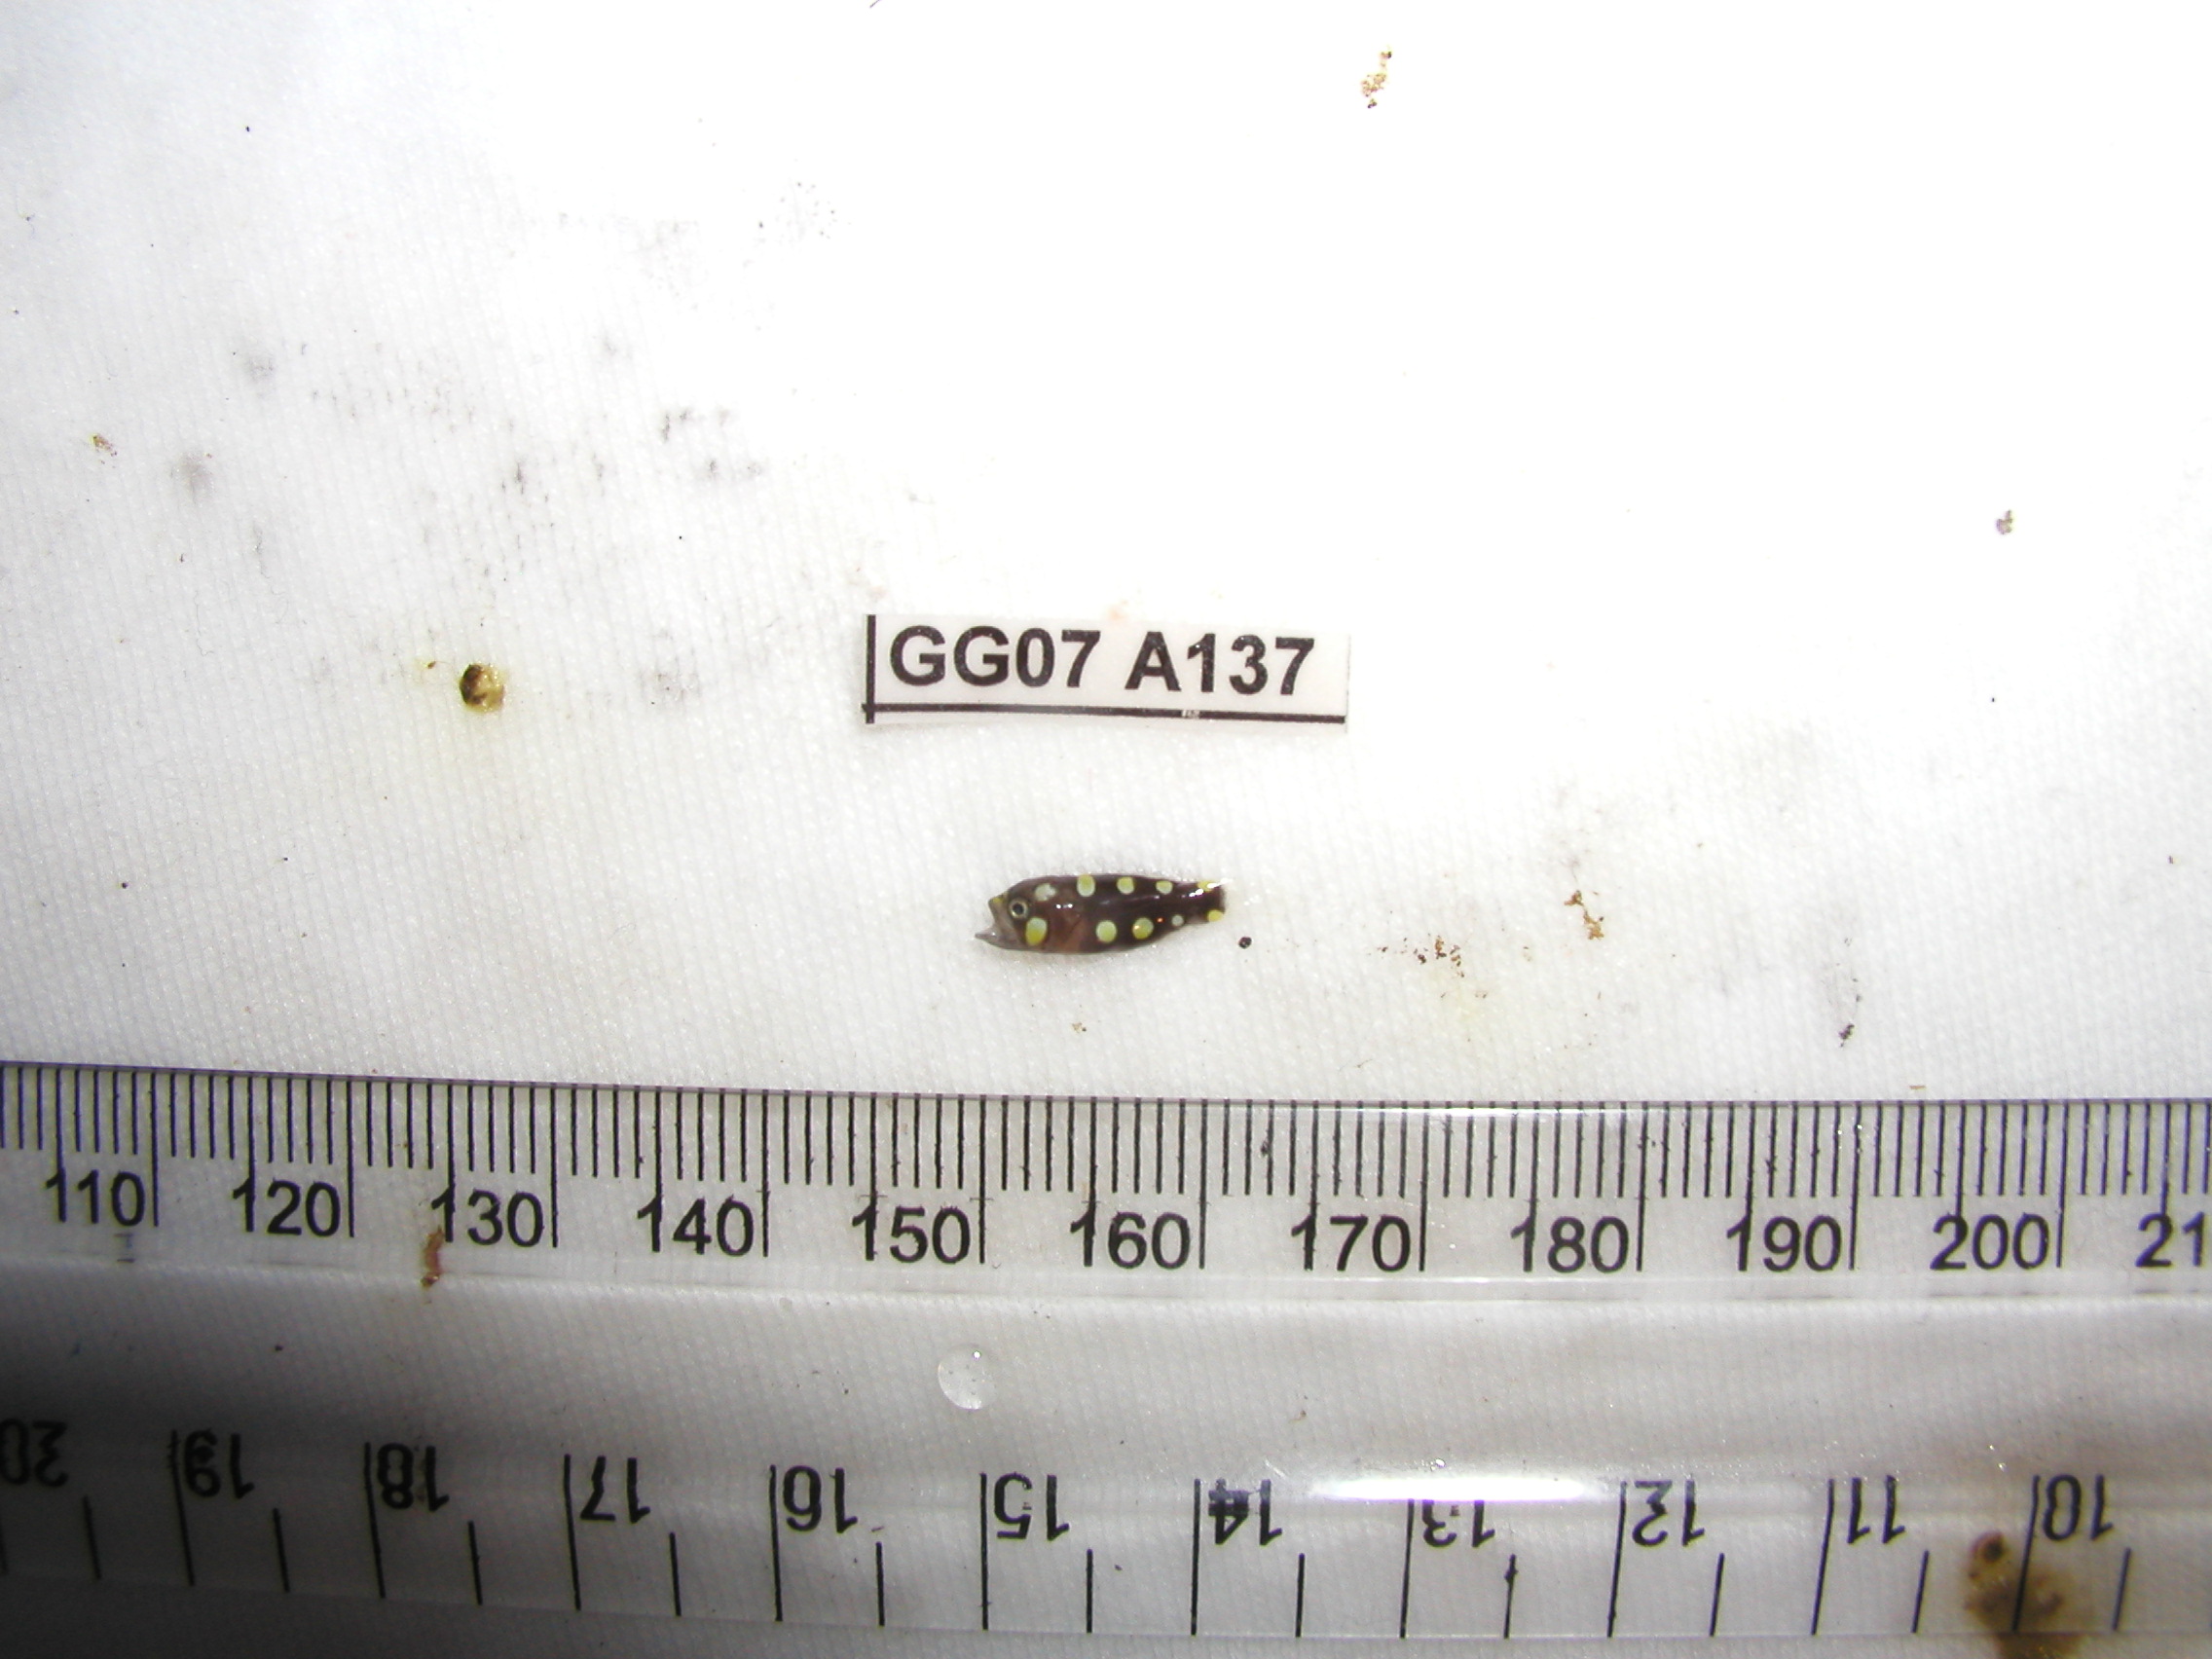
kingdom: Animalia
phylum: Chordata
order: Perciformes
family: Serranidae
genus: Grammistes
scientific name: Grammistes sexlineatus
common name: Sixline soapfish
